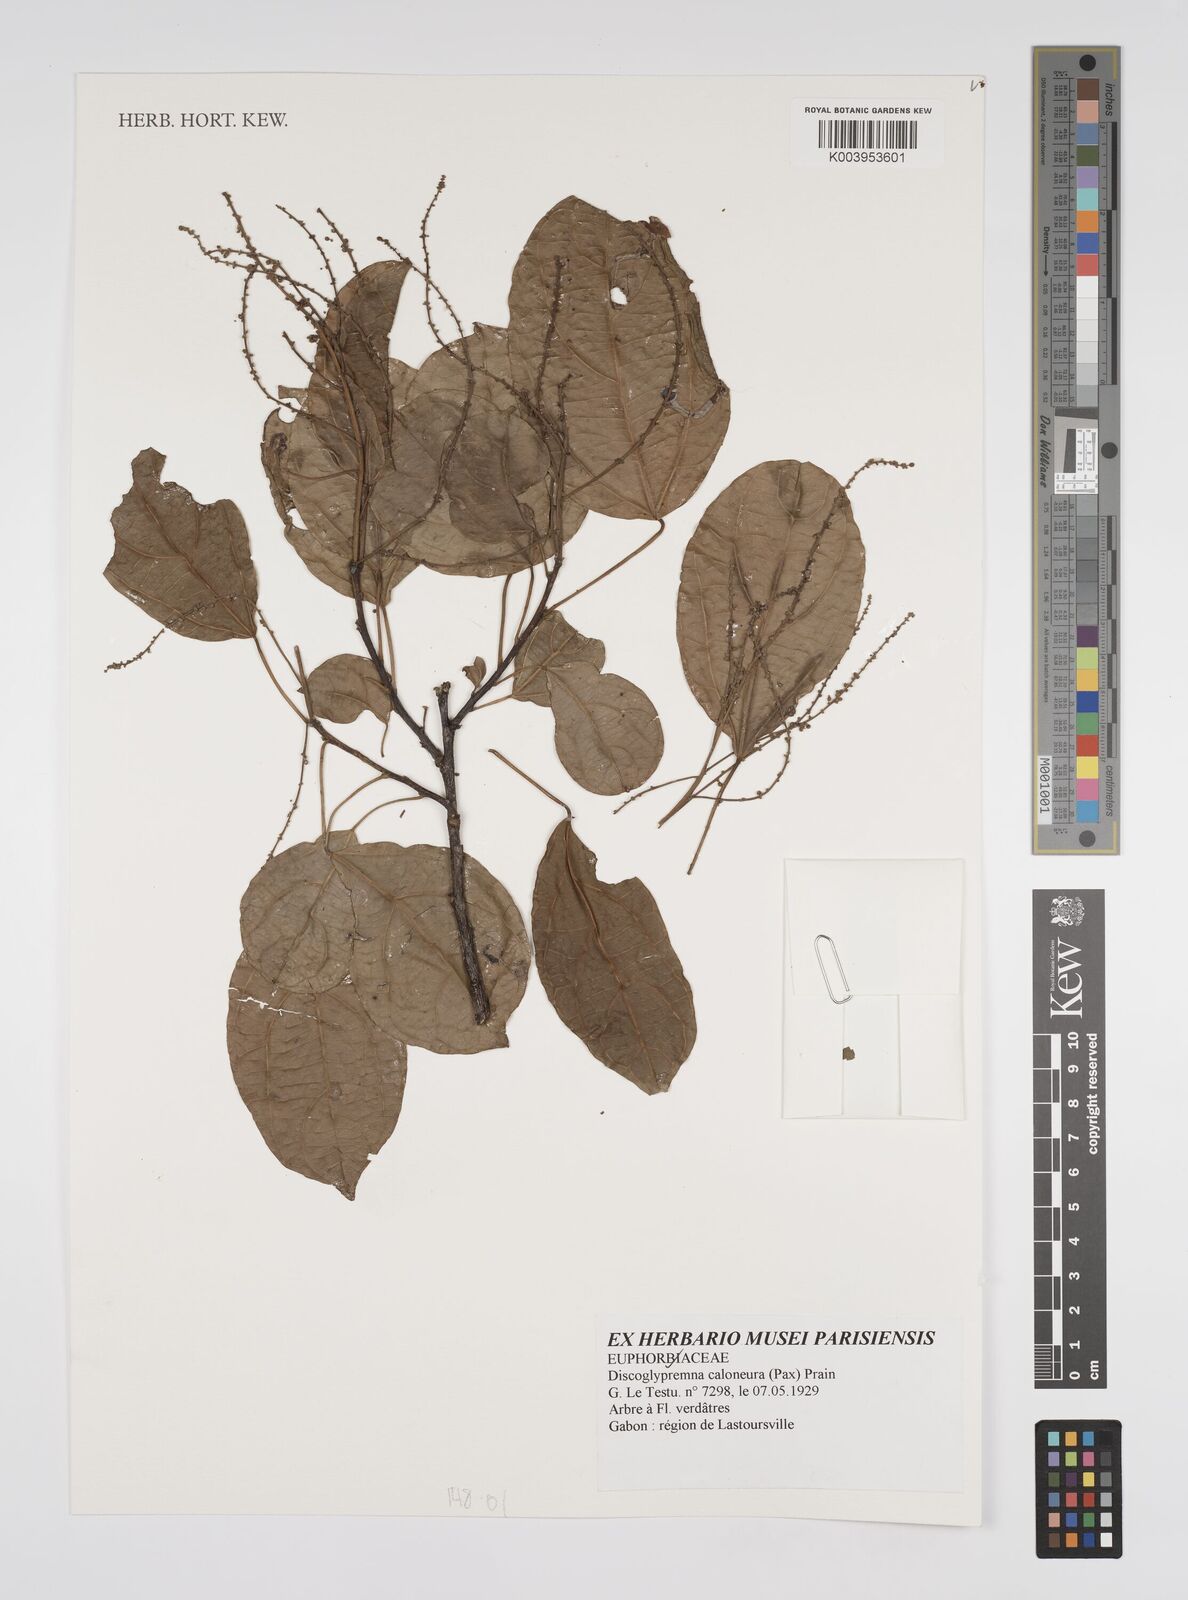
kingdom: Plantae
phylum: Tracheophyta
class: Magnoliopsida
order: Malpighiales
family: Euphorbiaceae
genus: Discoglypremna
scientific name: Discoglypremna caloneura
